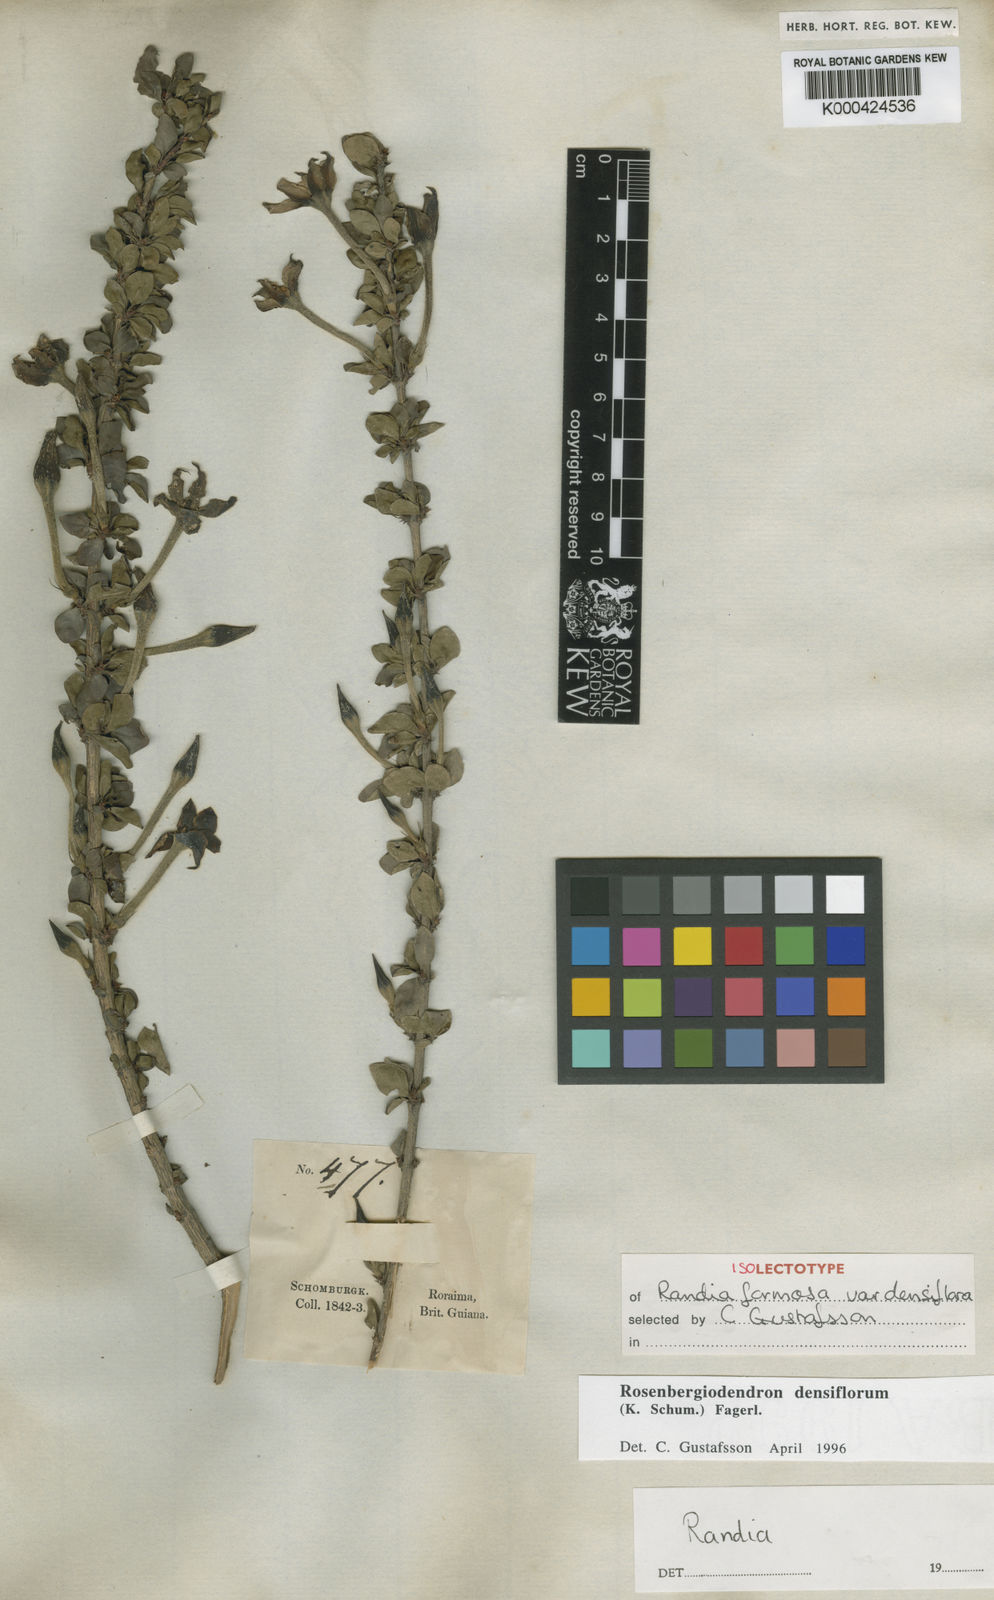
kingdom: Plantae
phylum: Tracheophyta
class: Magnoliopsida
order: Gentianales
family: Rubiaceae
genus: Rosenbergiodendron
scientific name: Rosenbergiodendron densiflorum
